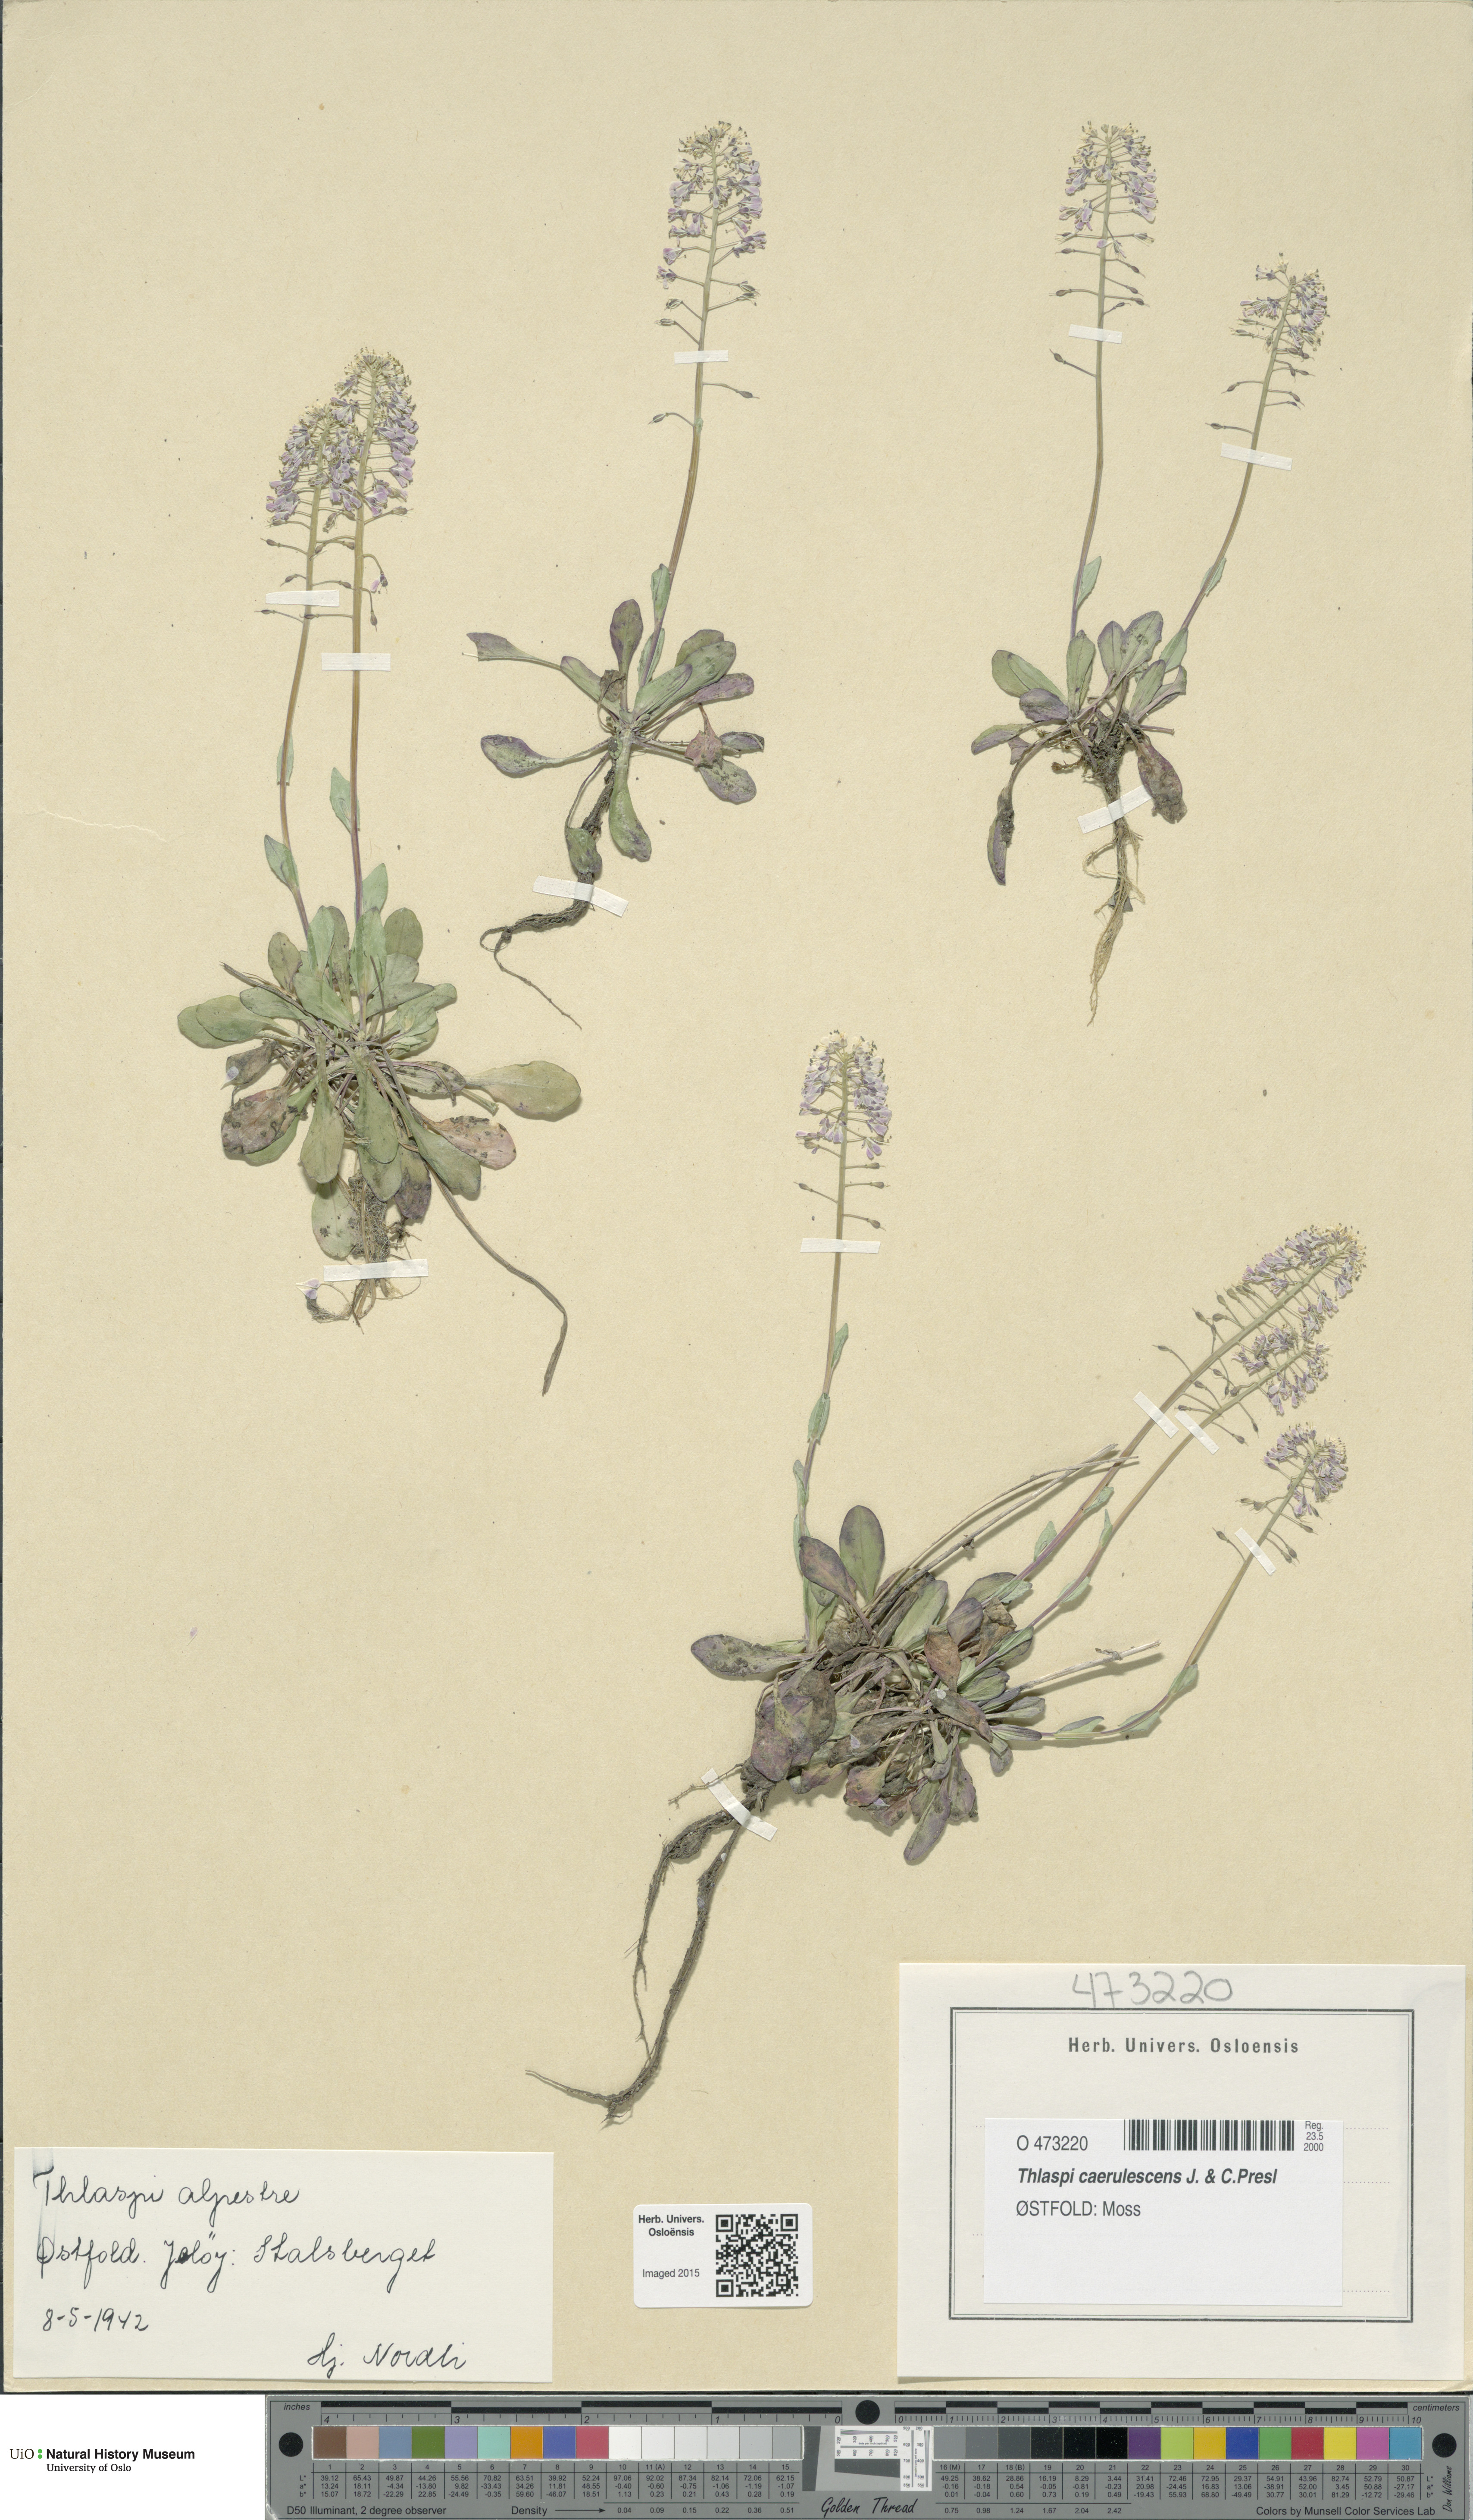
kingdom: Plantae
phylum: Tracheophyta
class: Magnoliopsida
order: Brassicales
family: Brassicaceae
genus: Noccaea
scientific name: Noccaea caerulescens
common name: Alpine pennycress
